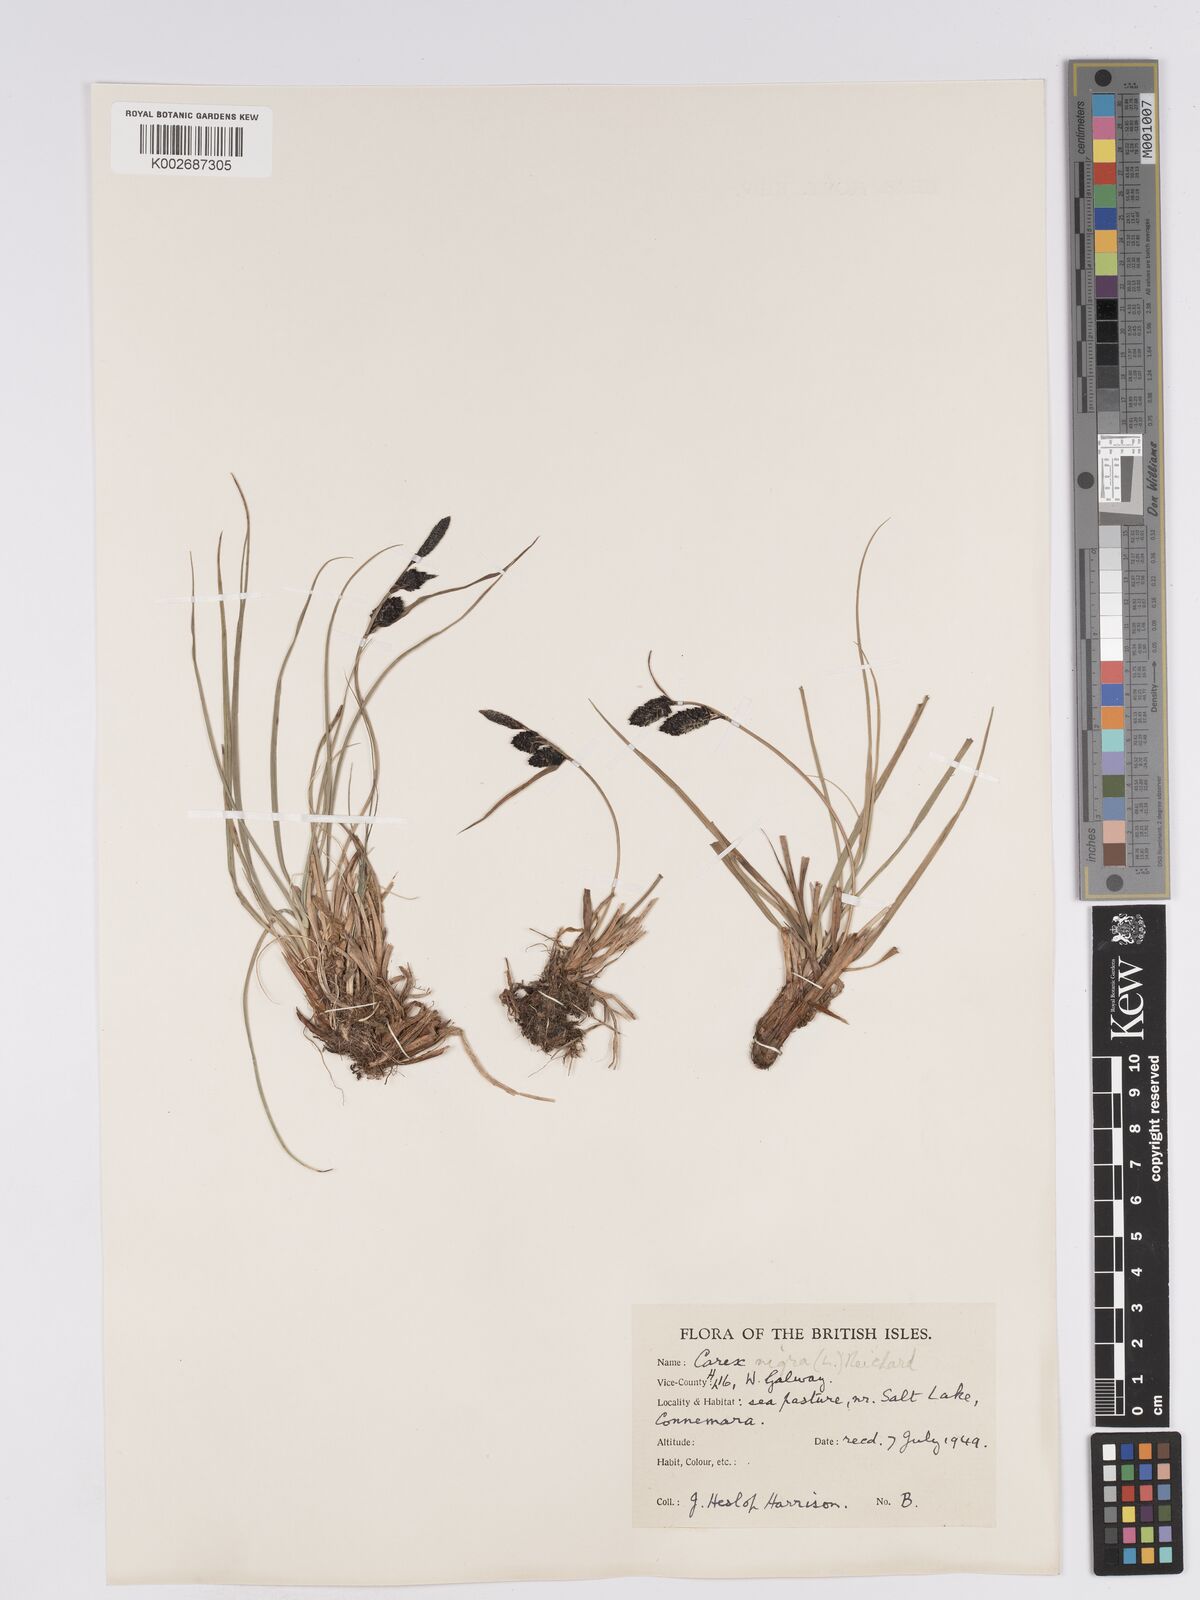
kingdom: Plantae
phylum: Tracheophyta
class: Liliopsida
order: Poales
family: Cyperaceae
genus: Carex
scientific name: Carex nigra
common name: Common sedge
